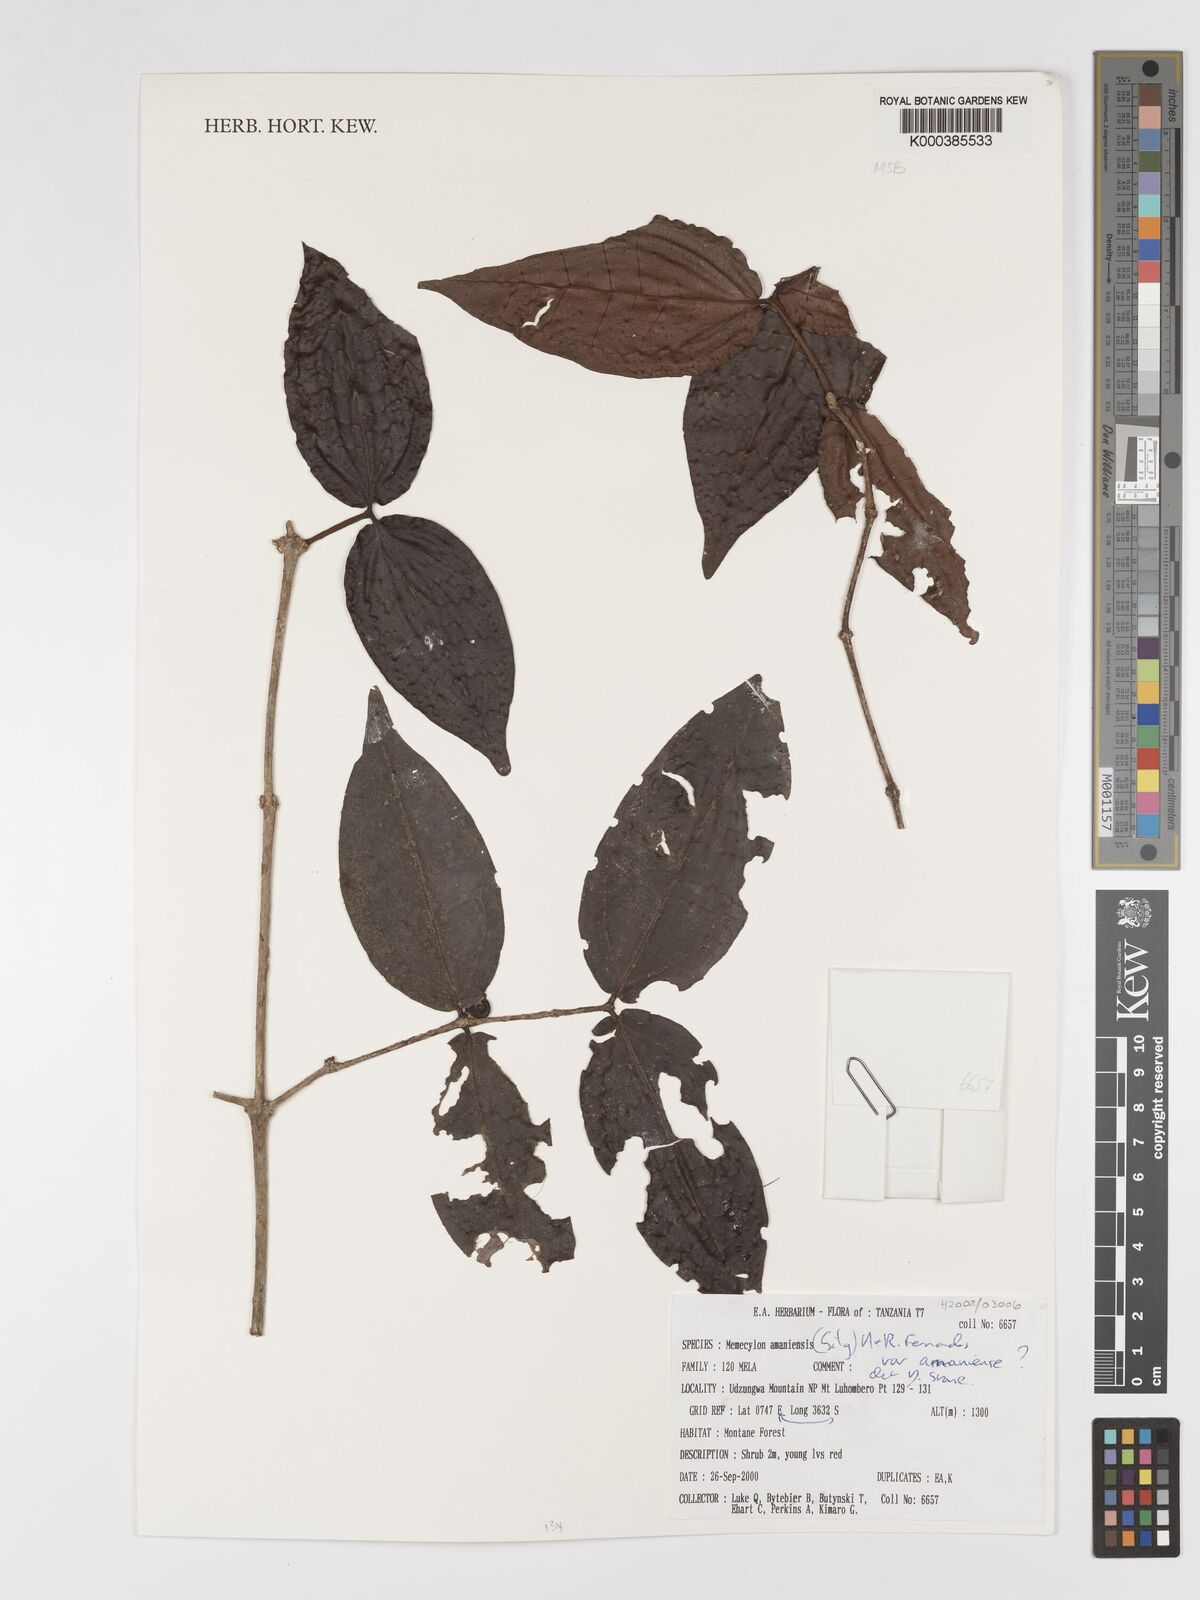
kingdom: Plantae
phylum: Tracheophyta
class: Magnoliopsida
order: Myrtales
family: Melastomataceae
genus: Warneckea
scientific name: Warneckea amaniensis
